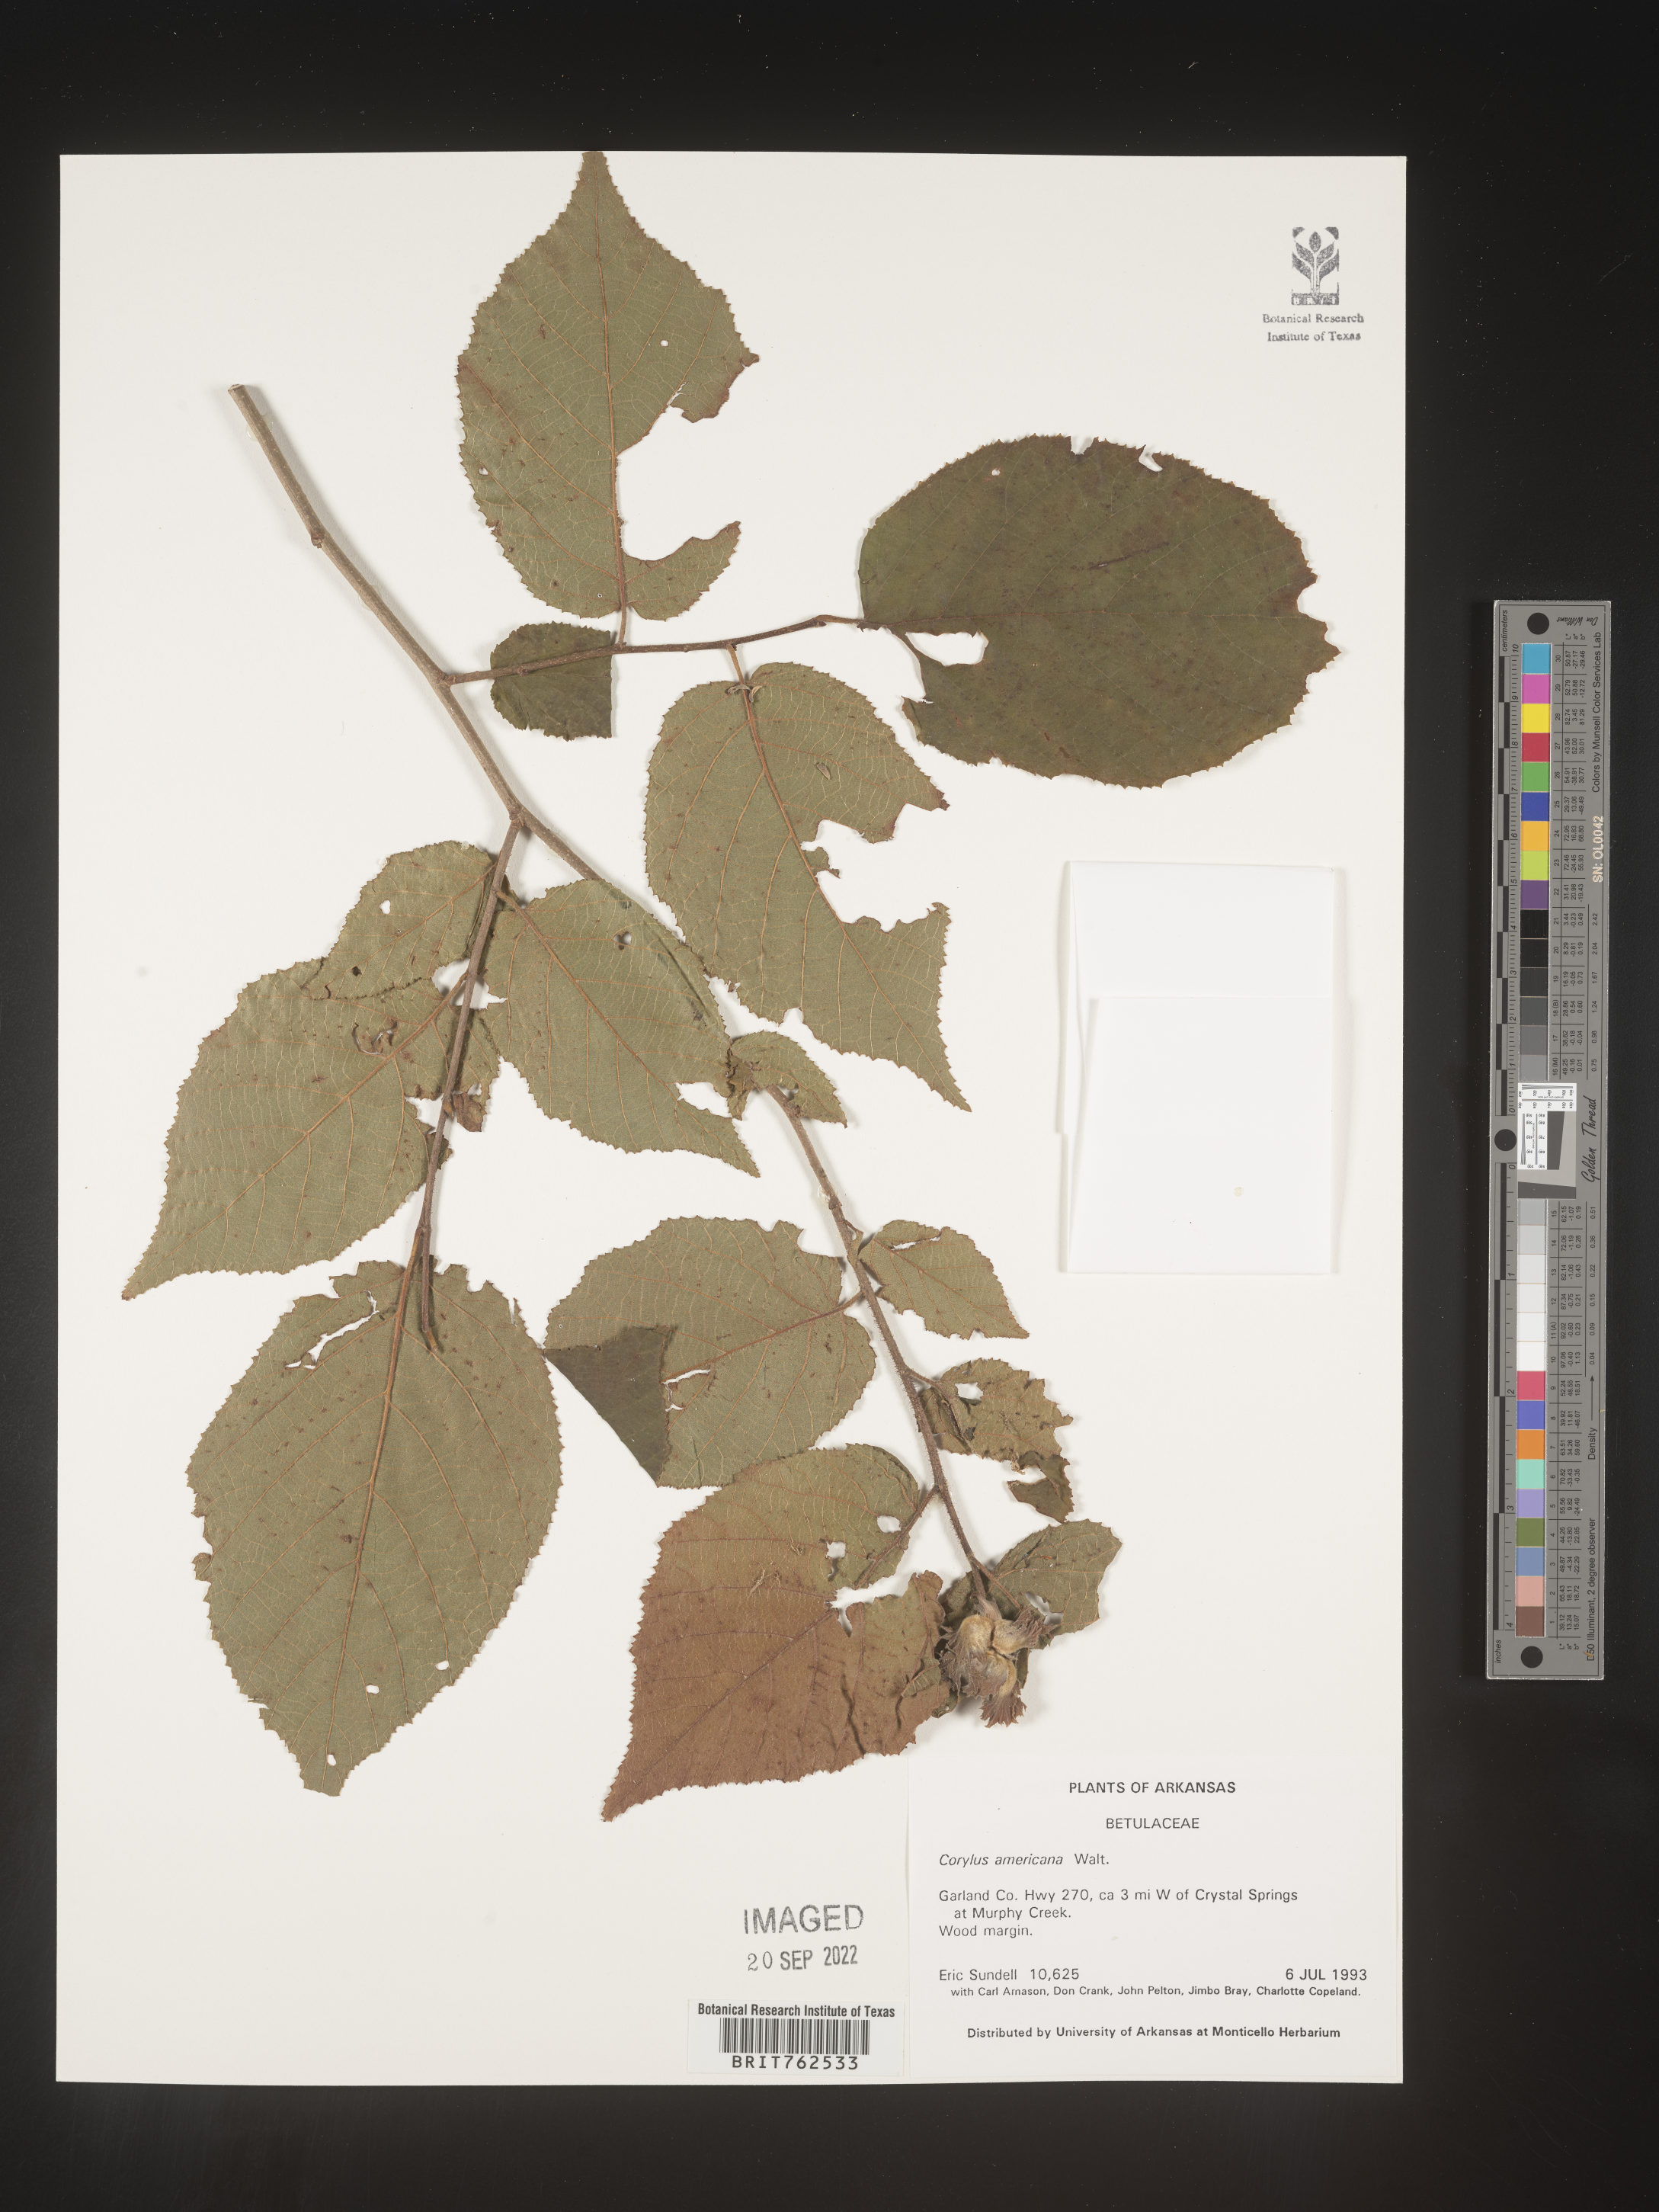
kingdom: Plantae
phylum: Tracheophyta
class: Magnoliopsida
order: Fagales
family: Betulaceae
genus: Corylus
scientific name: Corylus americana
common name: American hazel
